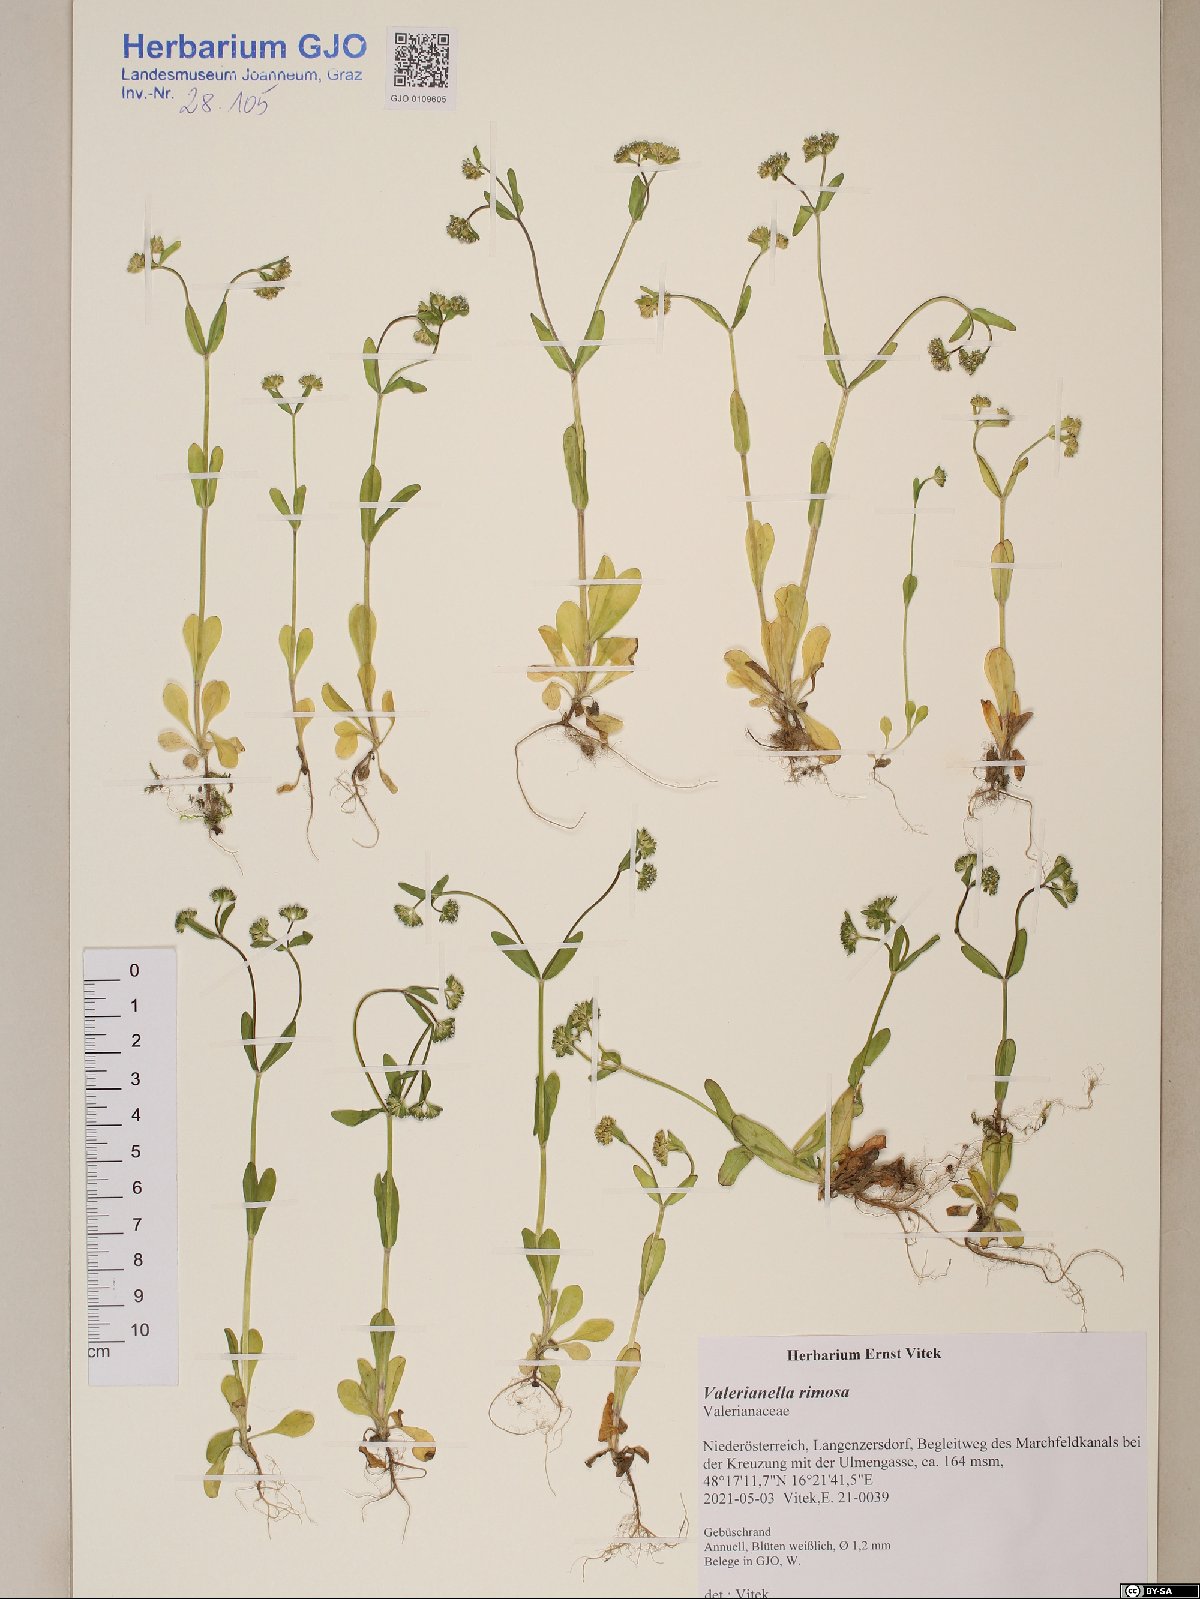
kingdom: Plantae
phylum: Tracheophyta
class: Magnoliopsida
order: Dipsacales
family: Caprifoliaceae
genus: Valerianella
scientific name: Valerianella rimosa
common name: Broad-fruited cornsalad
